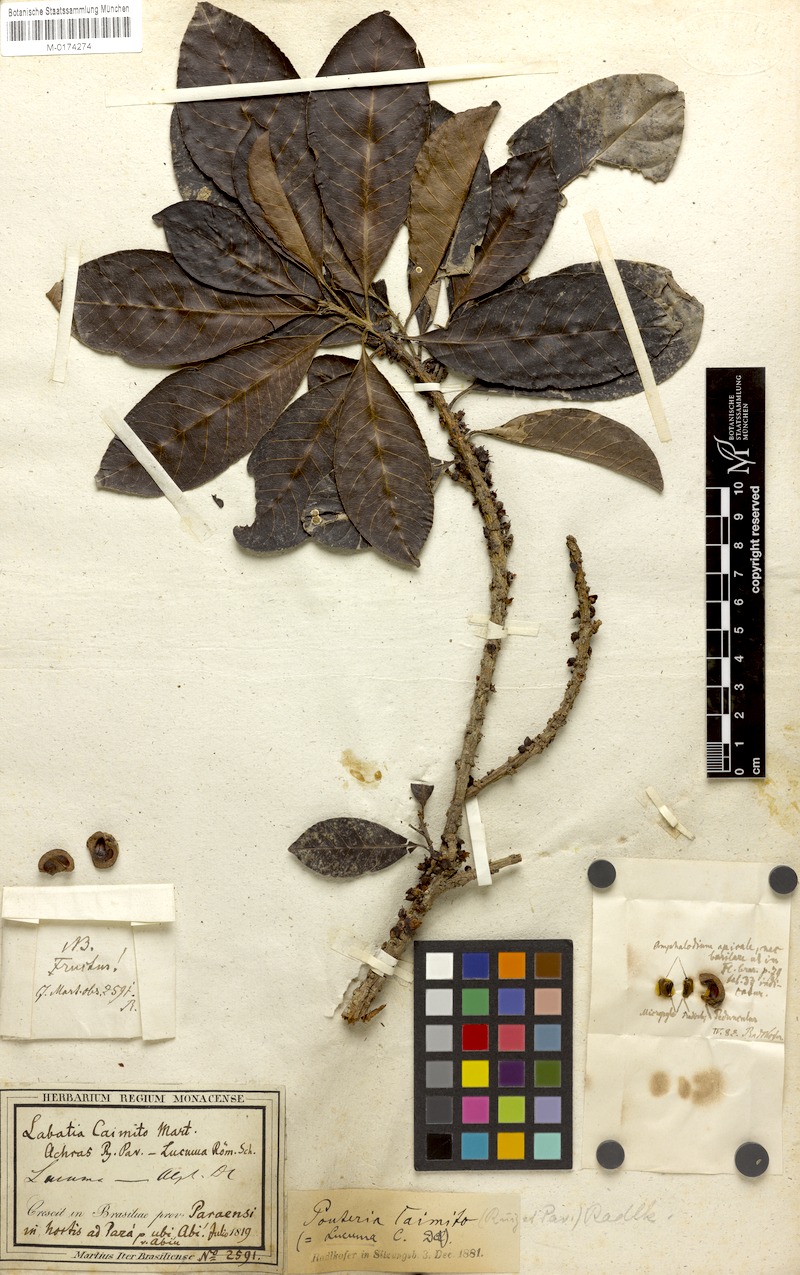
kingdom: Plantae
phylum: Tracheophyta
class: Magnoliopsida
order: Ericales
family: Sapotaceae
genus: Pouteria
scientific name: Pouteria caimito
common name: Caimito
